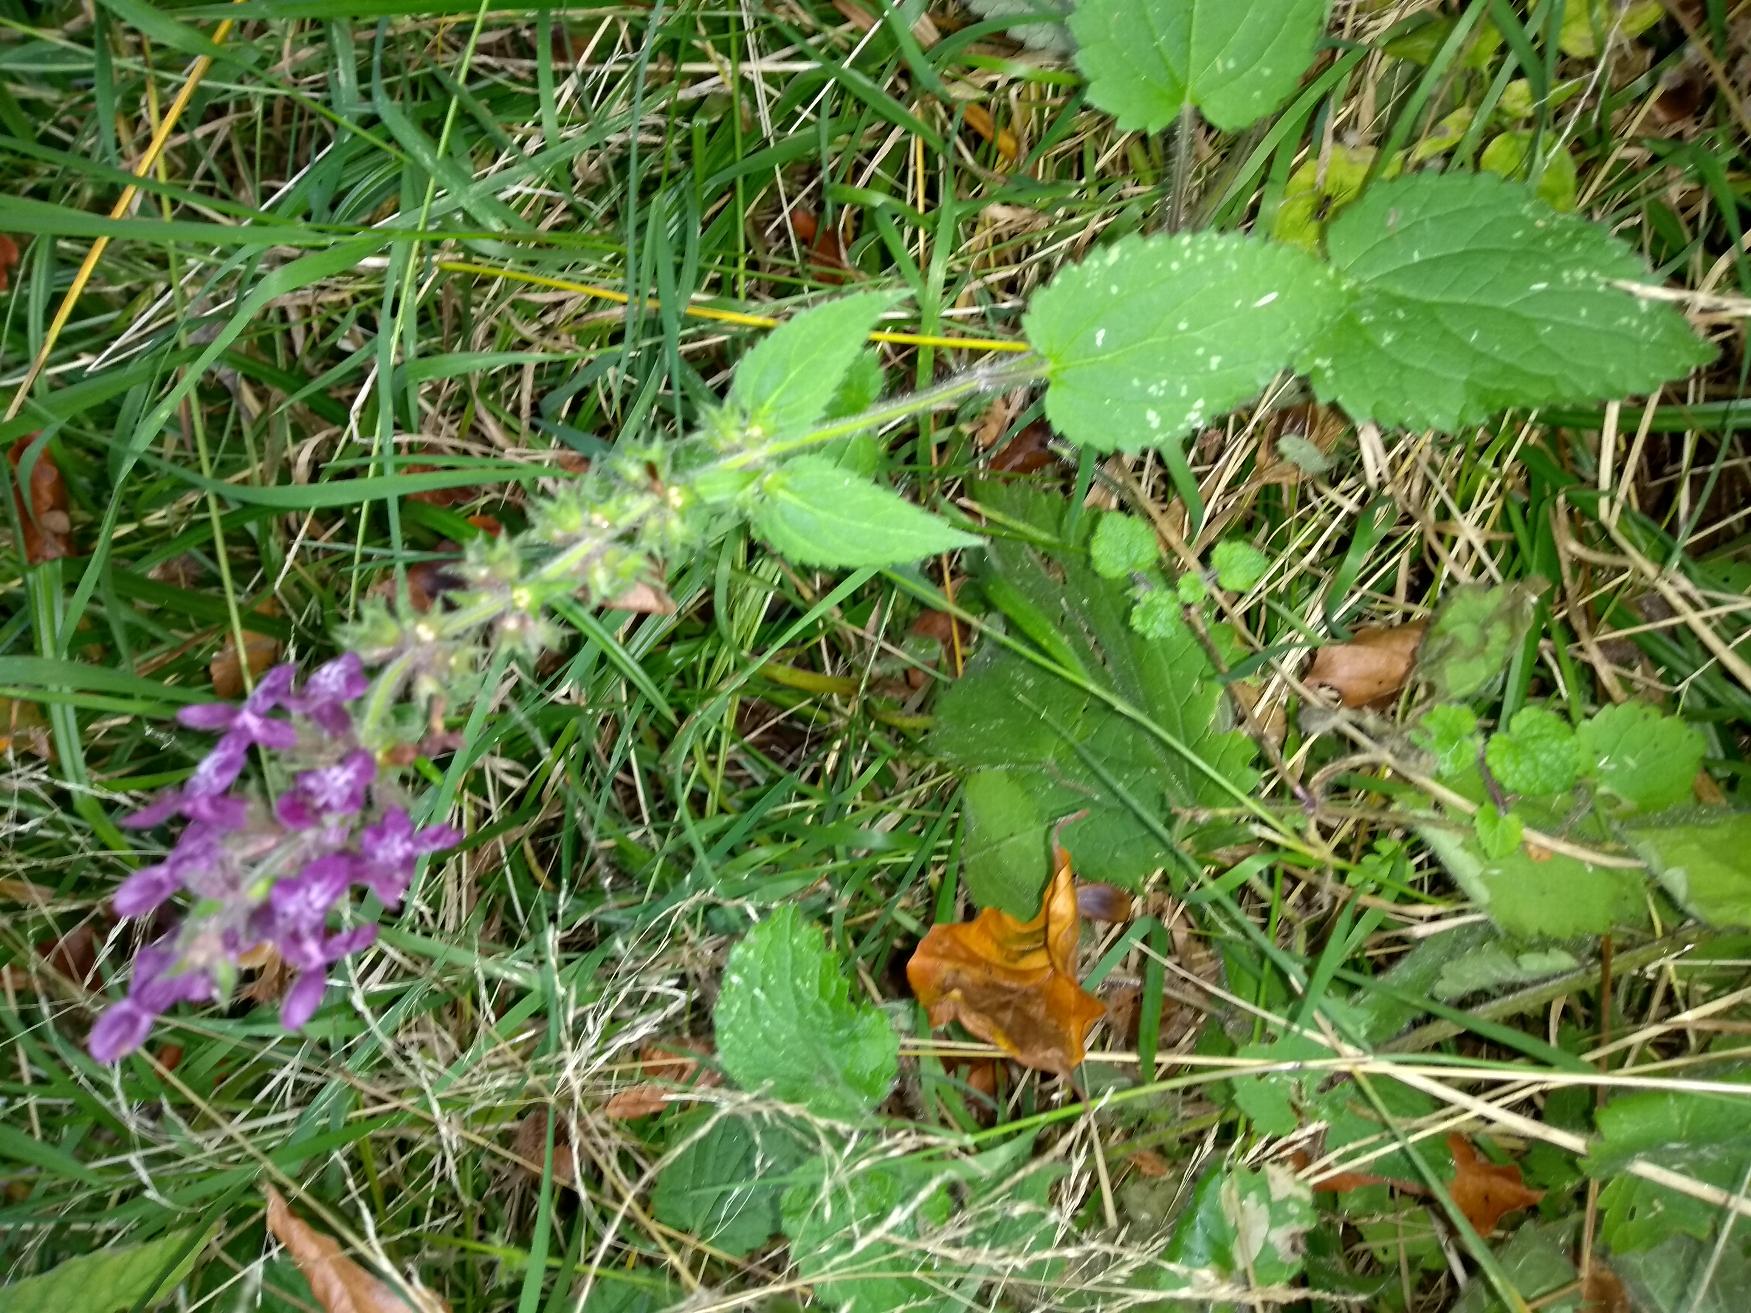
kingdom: Plantae
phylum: Tracheophyta
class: Magnoliopsida
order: Lamiales
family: Lamiaceae
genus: Stachys
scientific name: Stachys sylvatica
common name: Skov-galtetand
